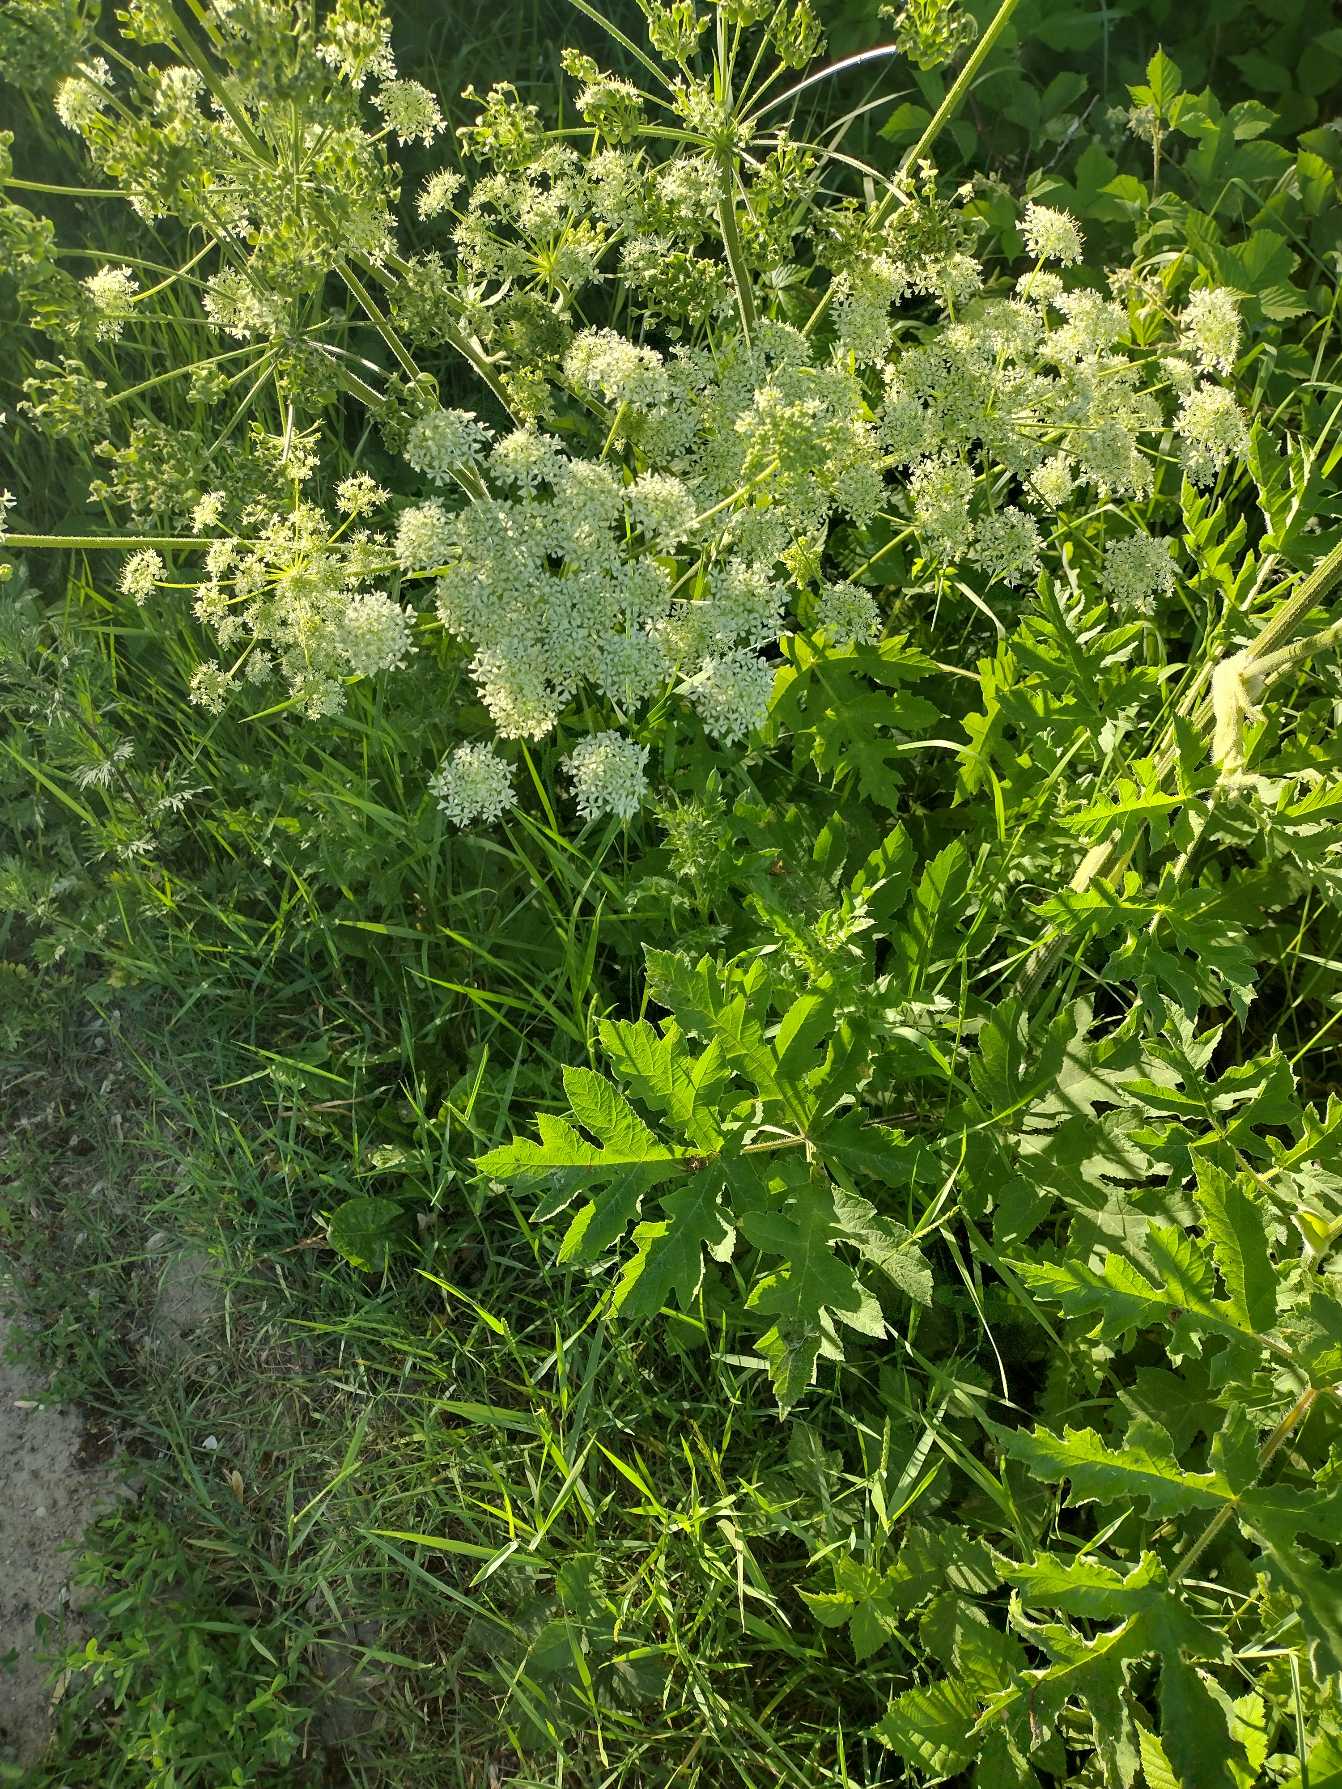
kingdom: Plantae
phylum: Tracheophyta
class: Magnoliopsida
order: Apiales
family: Apiaceae
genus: Heracleum
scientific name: Heracleum sphondylium
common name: Almindelig bjørneklo
